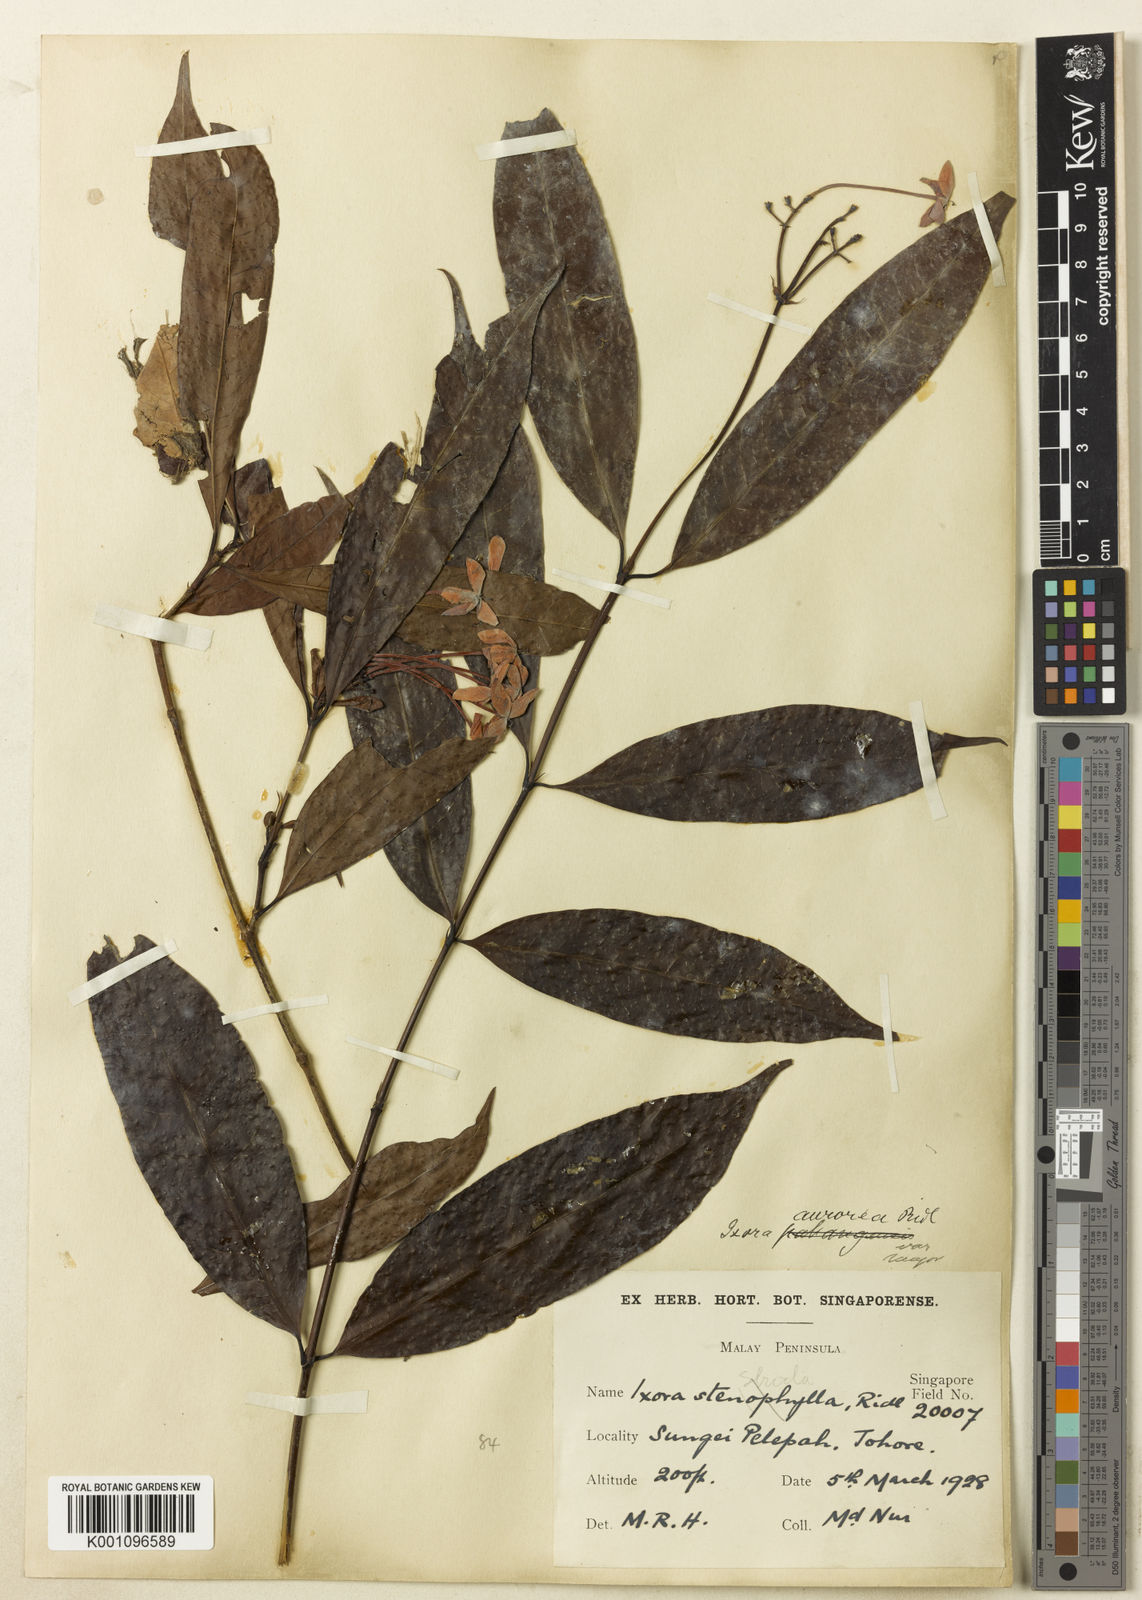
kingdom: Plantae
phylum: Tracheophyta
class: Magnoliopsida
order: Gentianales
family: Rubiaceae
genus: Ixora
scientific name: Ixora aurorea
